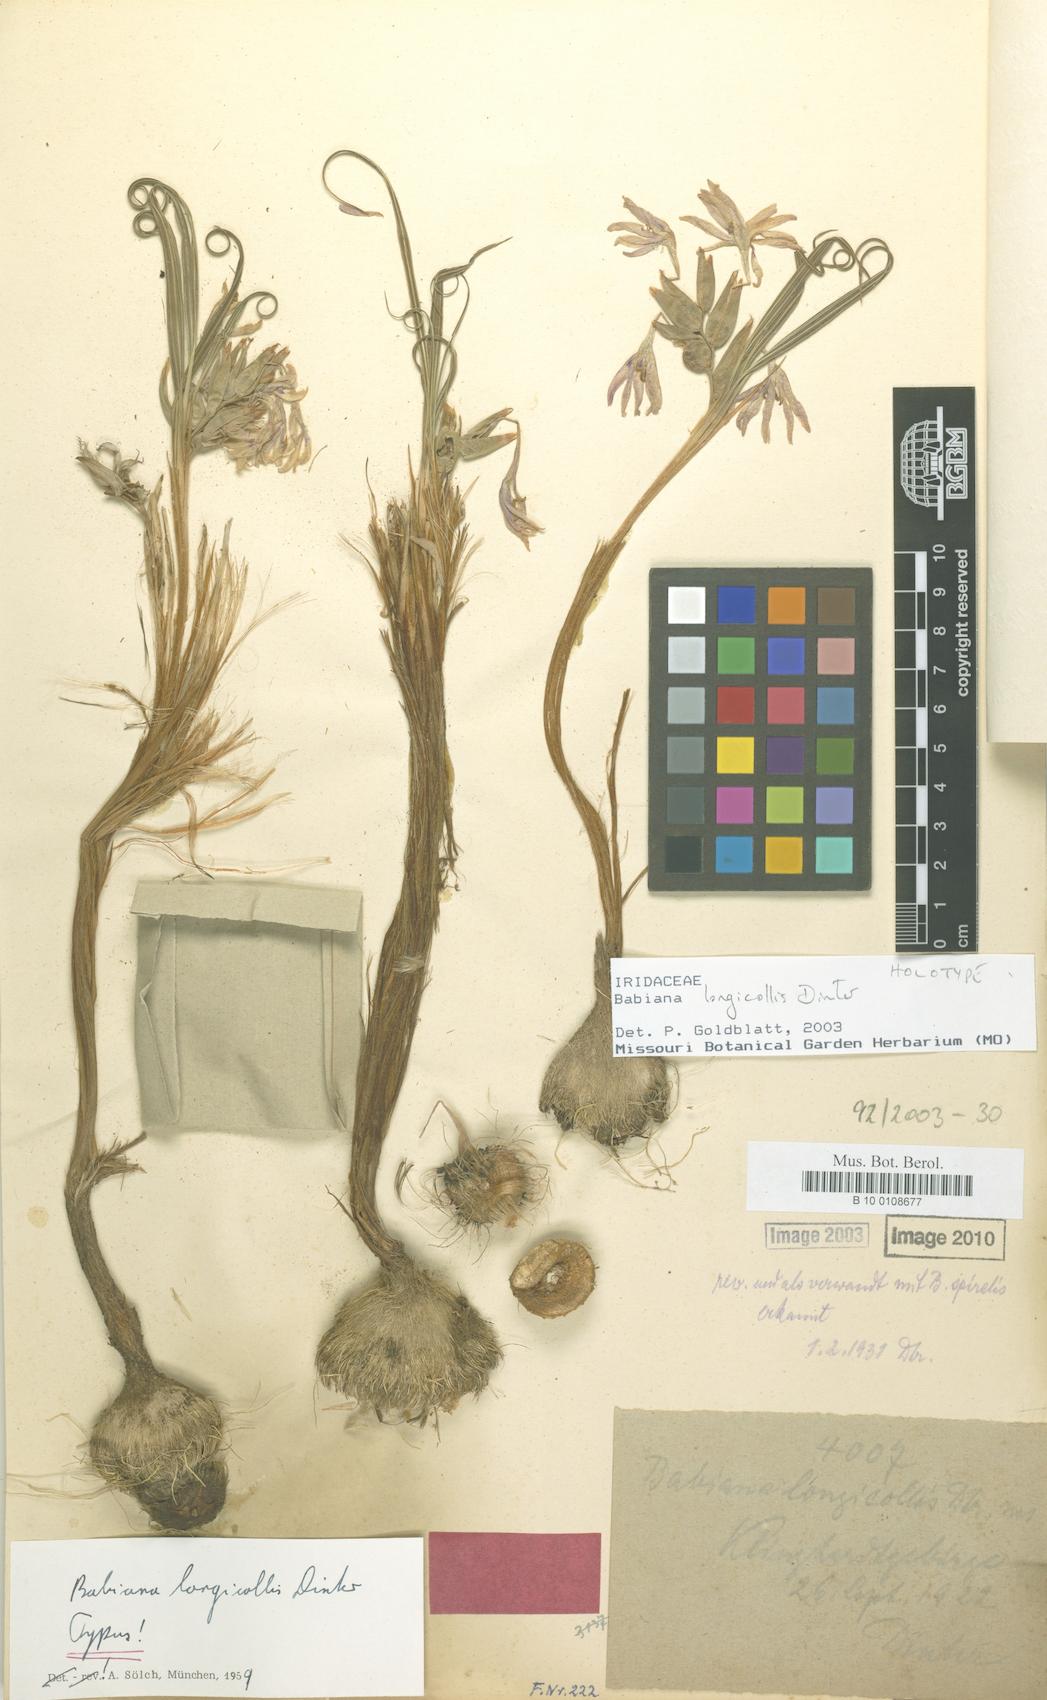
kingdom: Plantae
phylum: Tracheophyta
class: Liliopsida
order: Asparagales
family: Iridaceae
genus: Babiana
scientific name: Babiana longicollis
